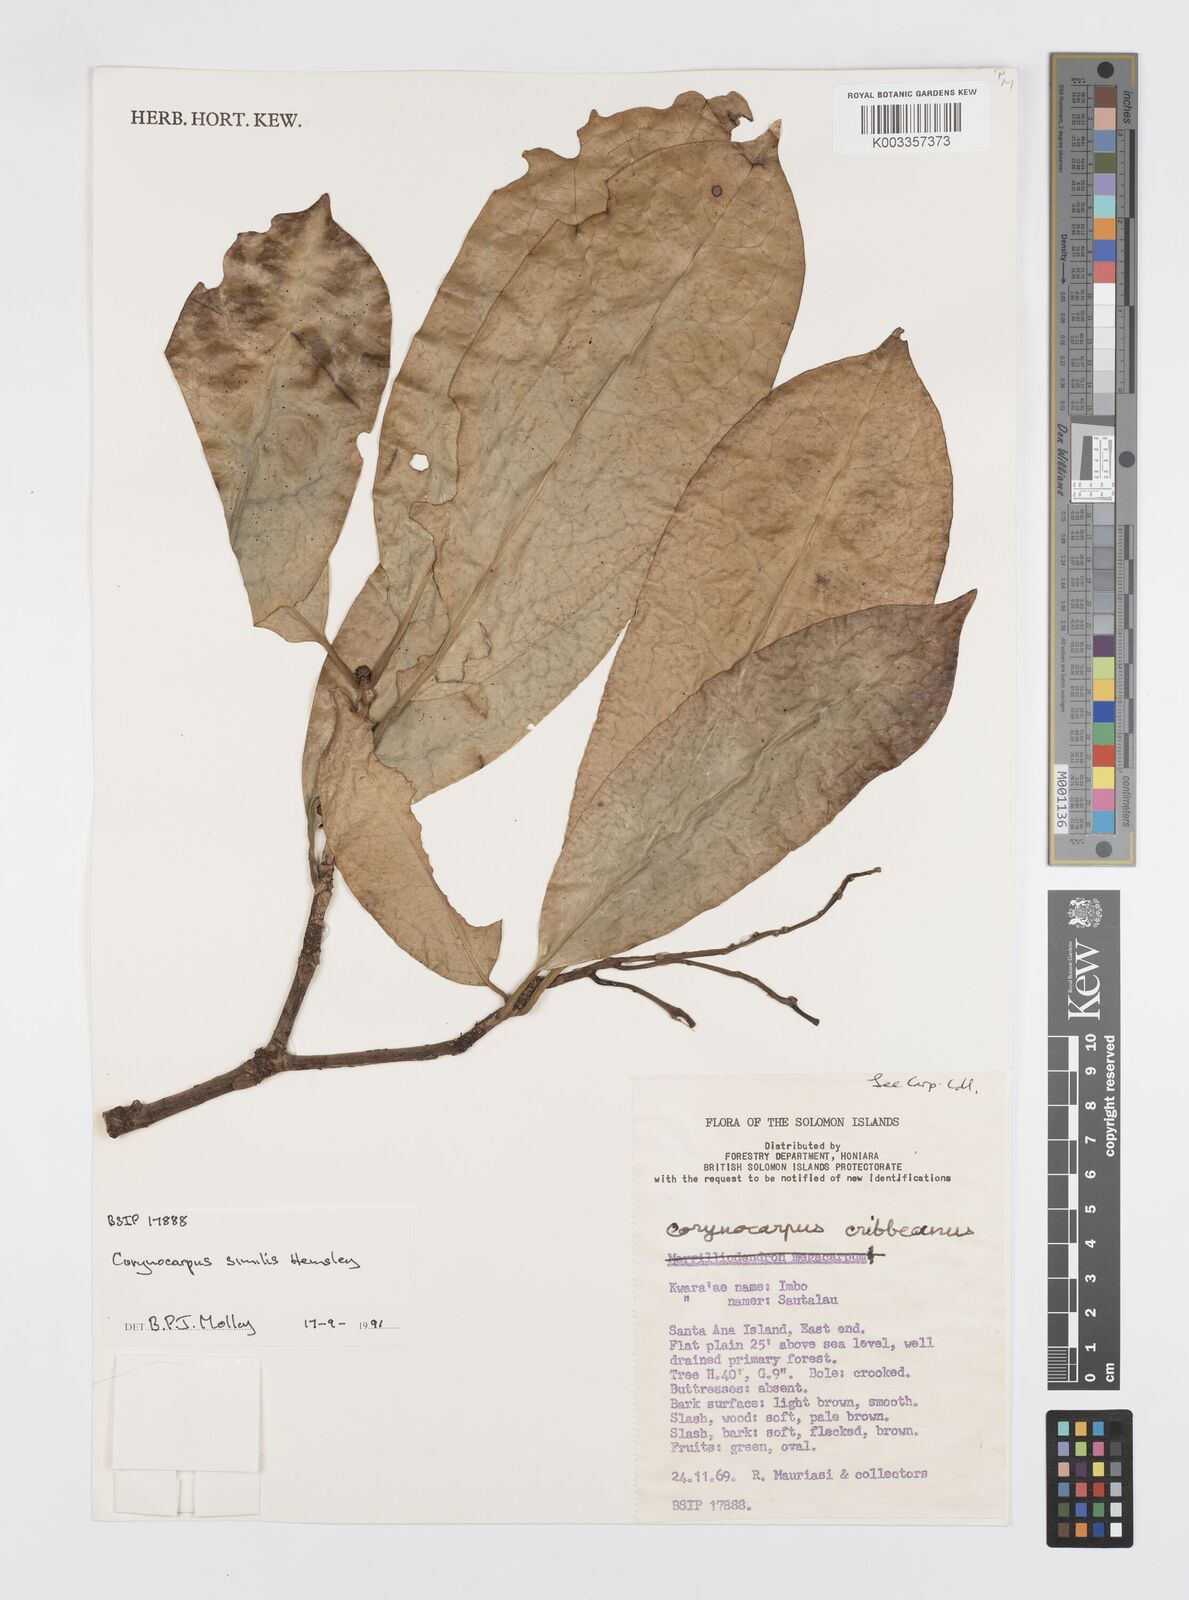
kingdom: Plantae
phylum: Tracheophyta
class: Magnoliopsida
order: Cucurbitales
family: Corynocarpaceae
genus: Corynocarpus
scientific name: Corynocarpus similis
